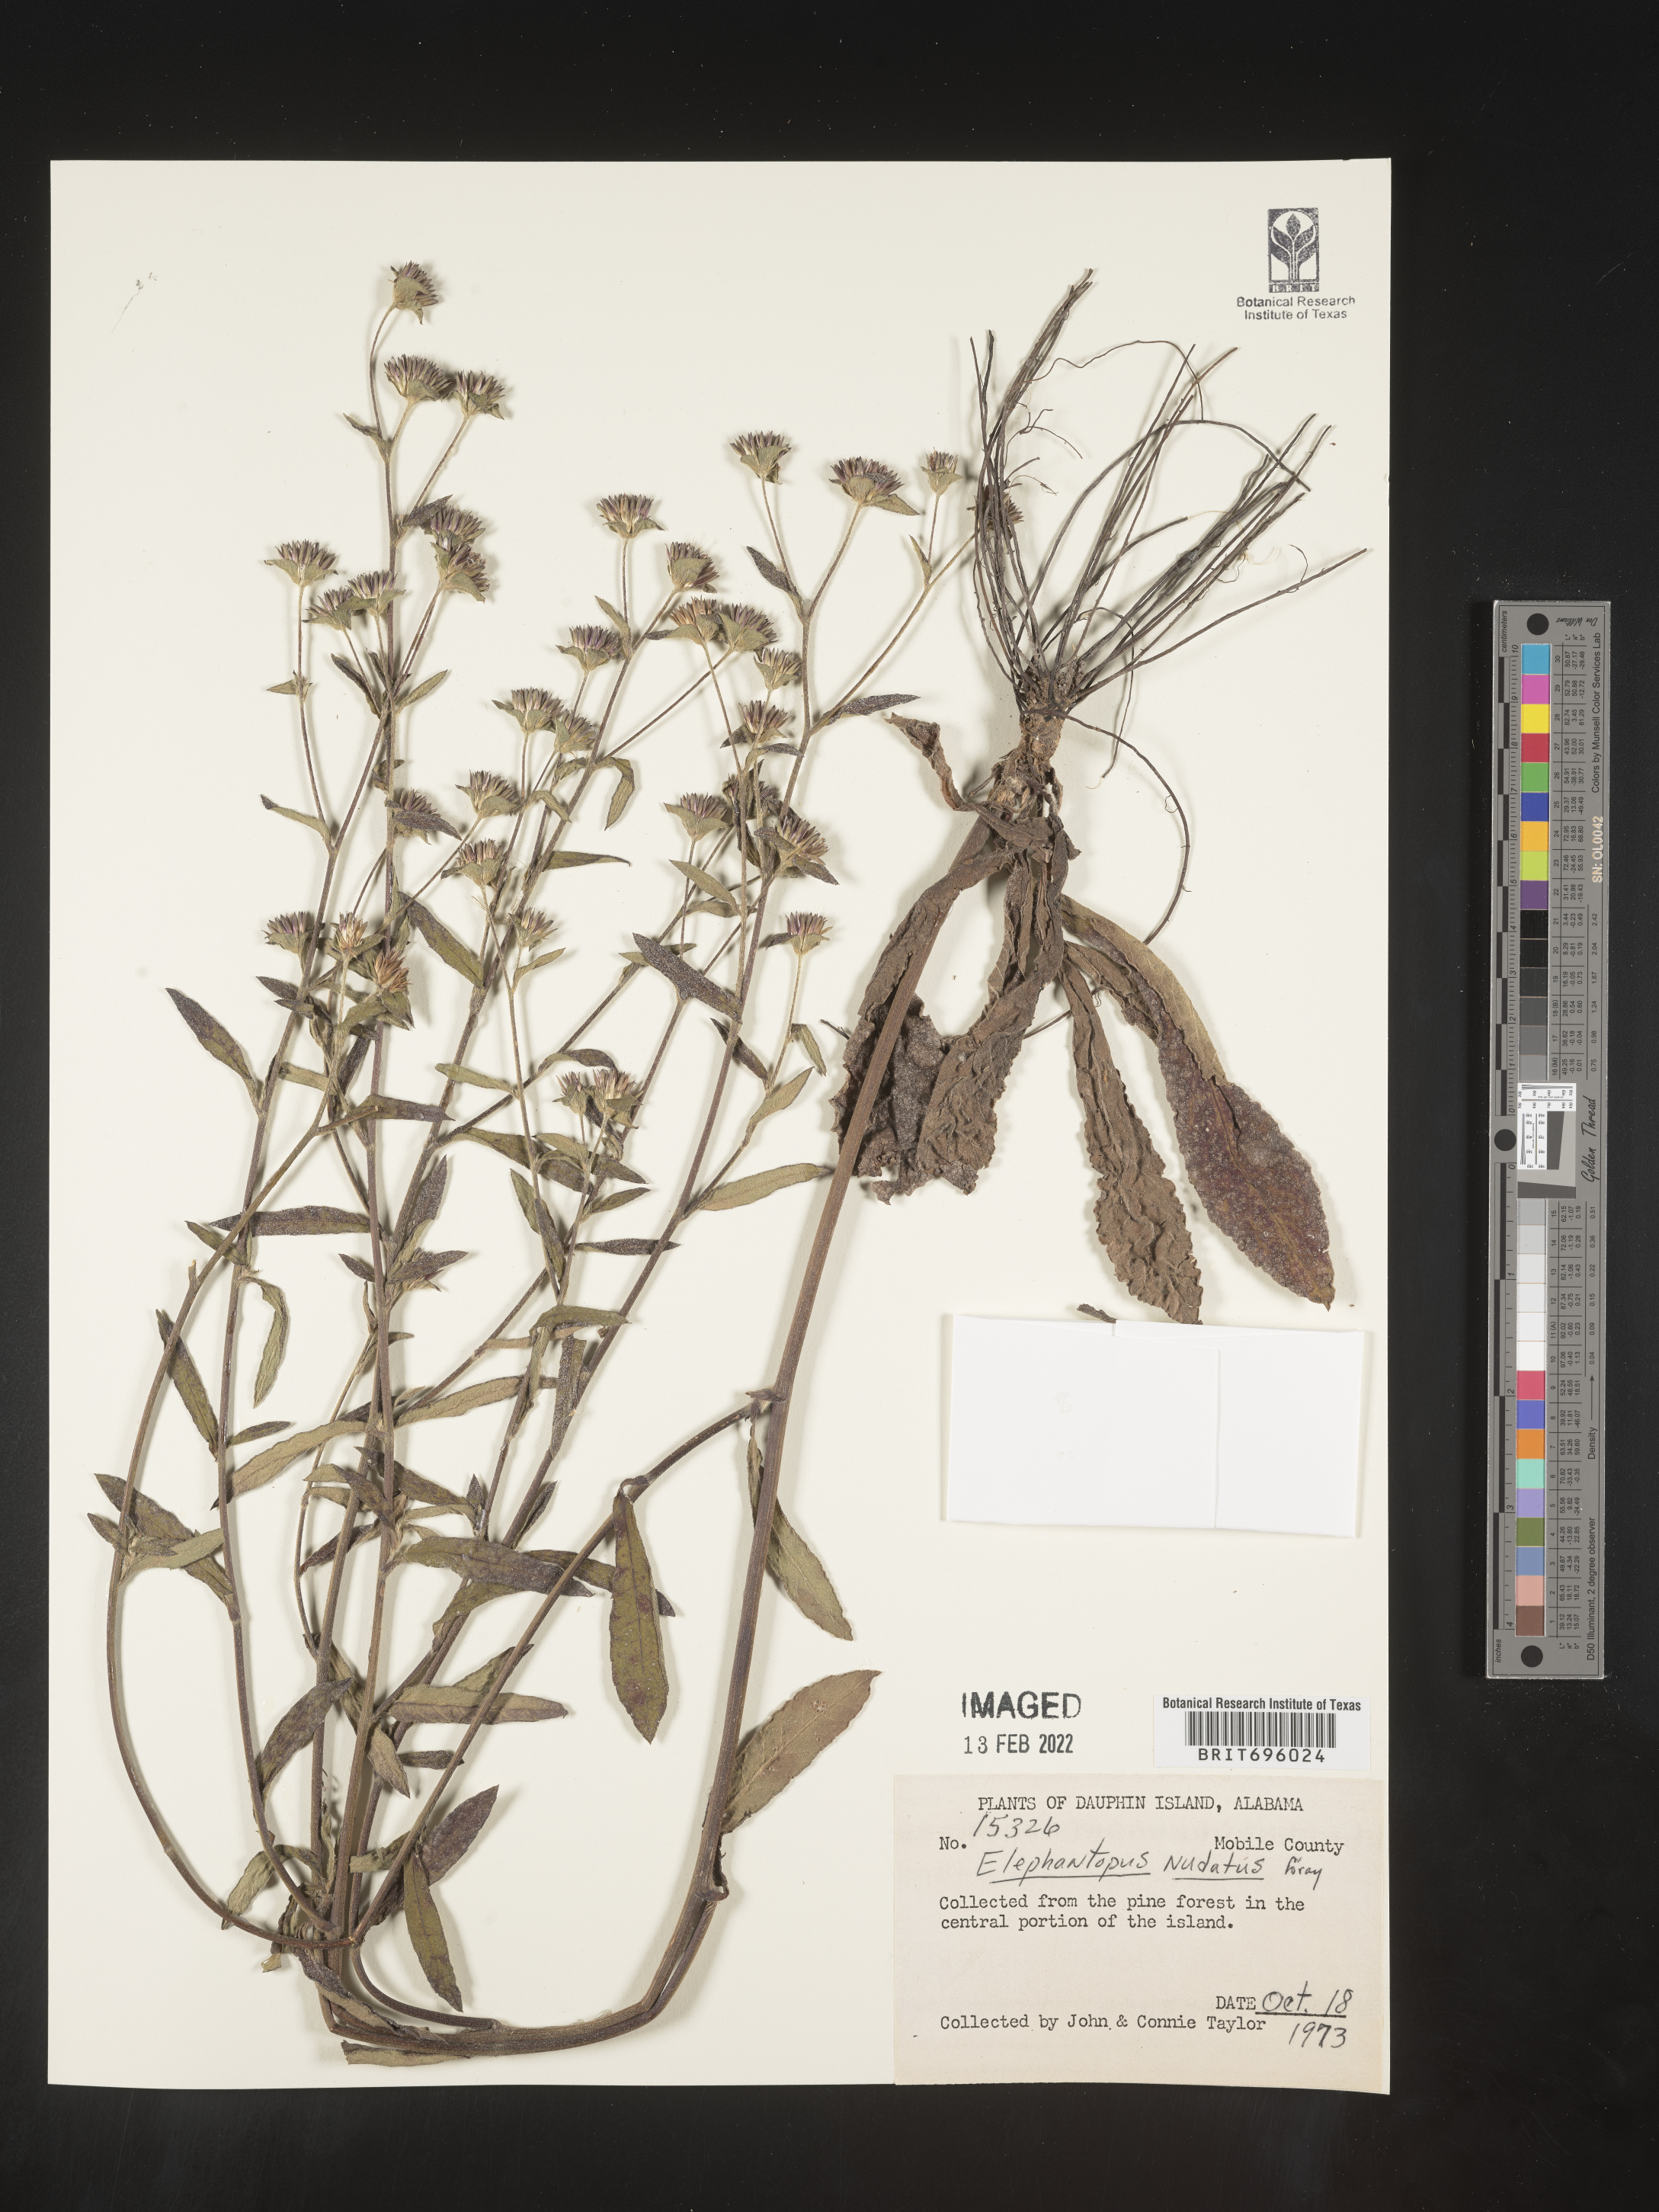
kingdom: Plantae
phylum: Tracheophyta
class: Magnoliopsida
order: Asterales
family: Asteraceae
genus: Elephantopus
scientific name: Elephantopus nudatus
